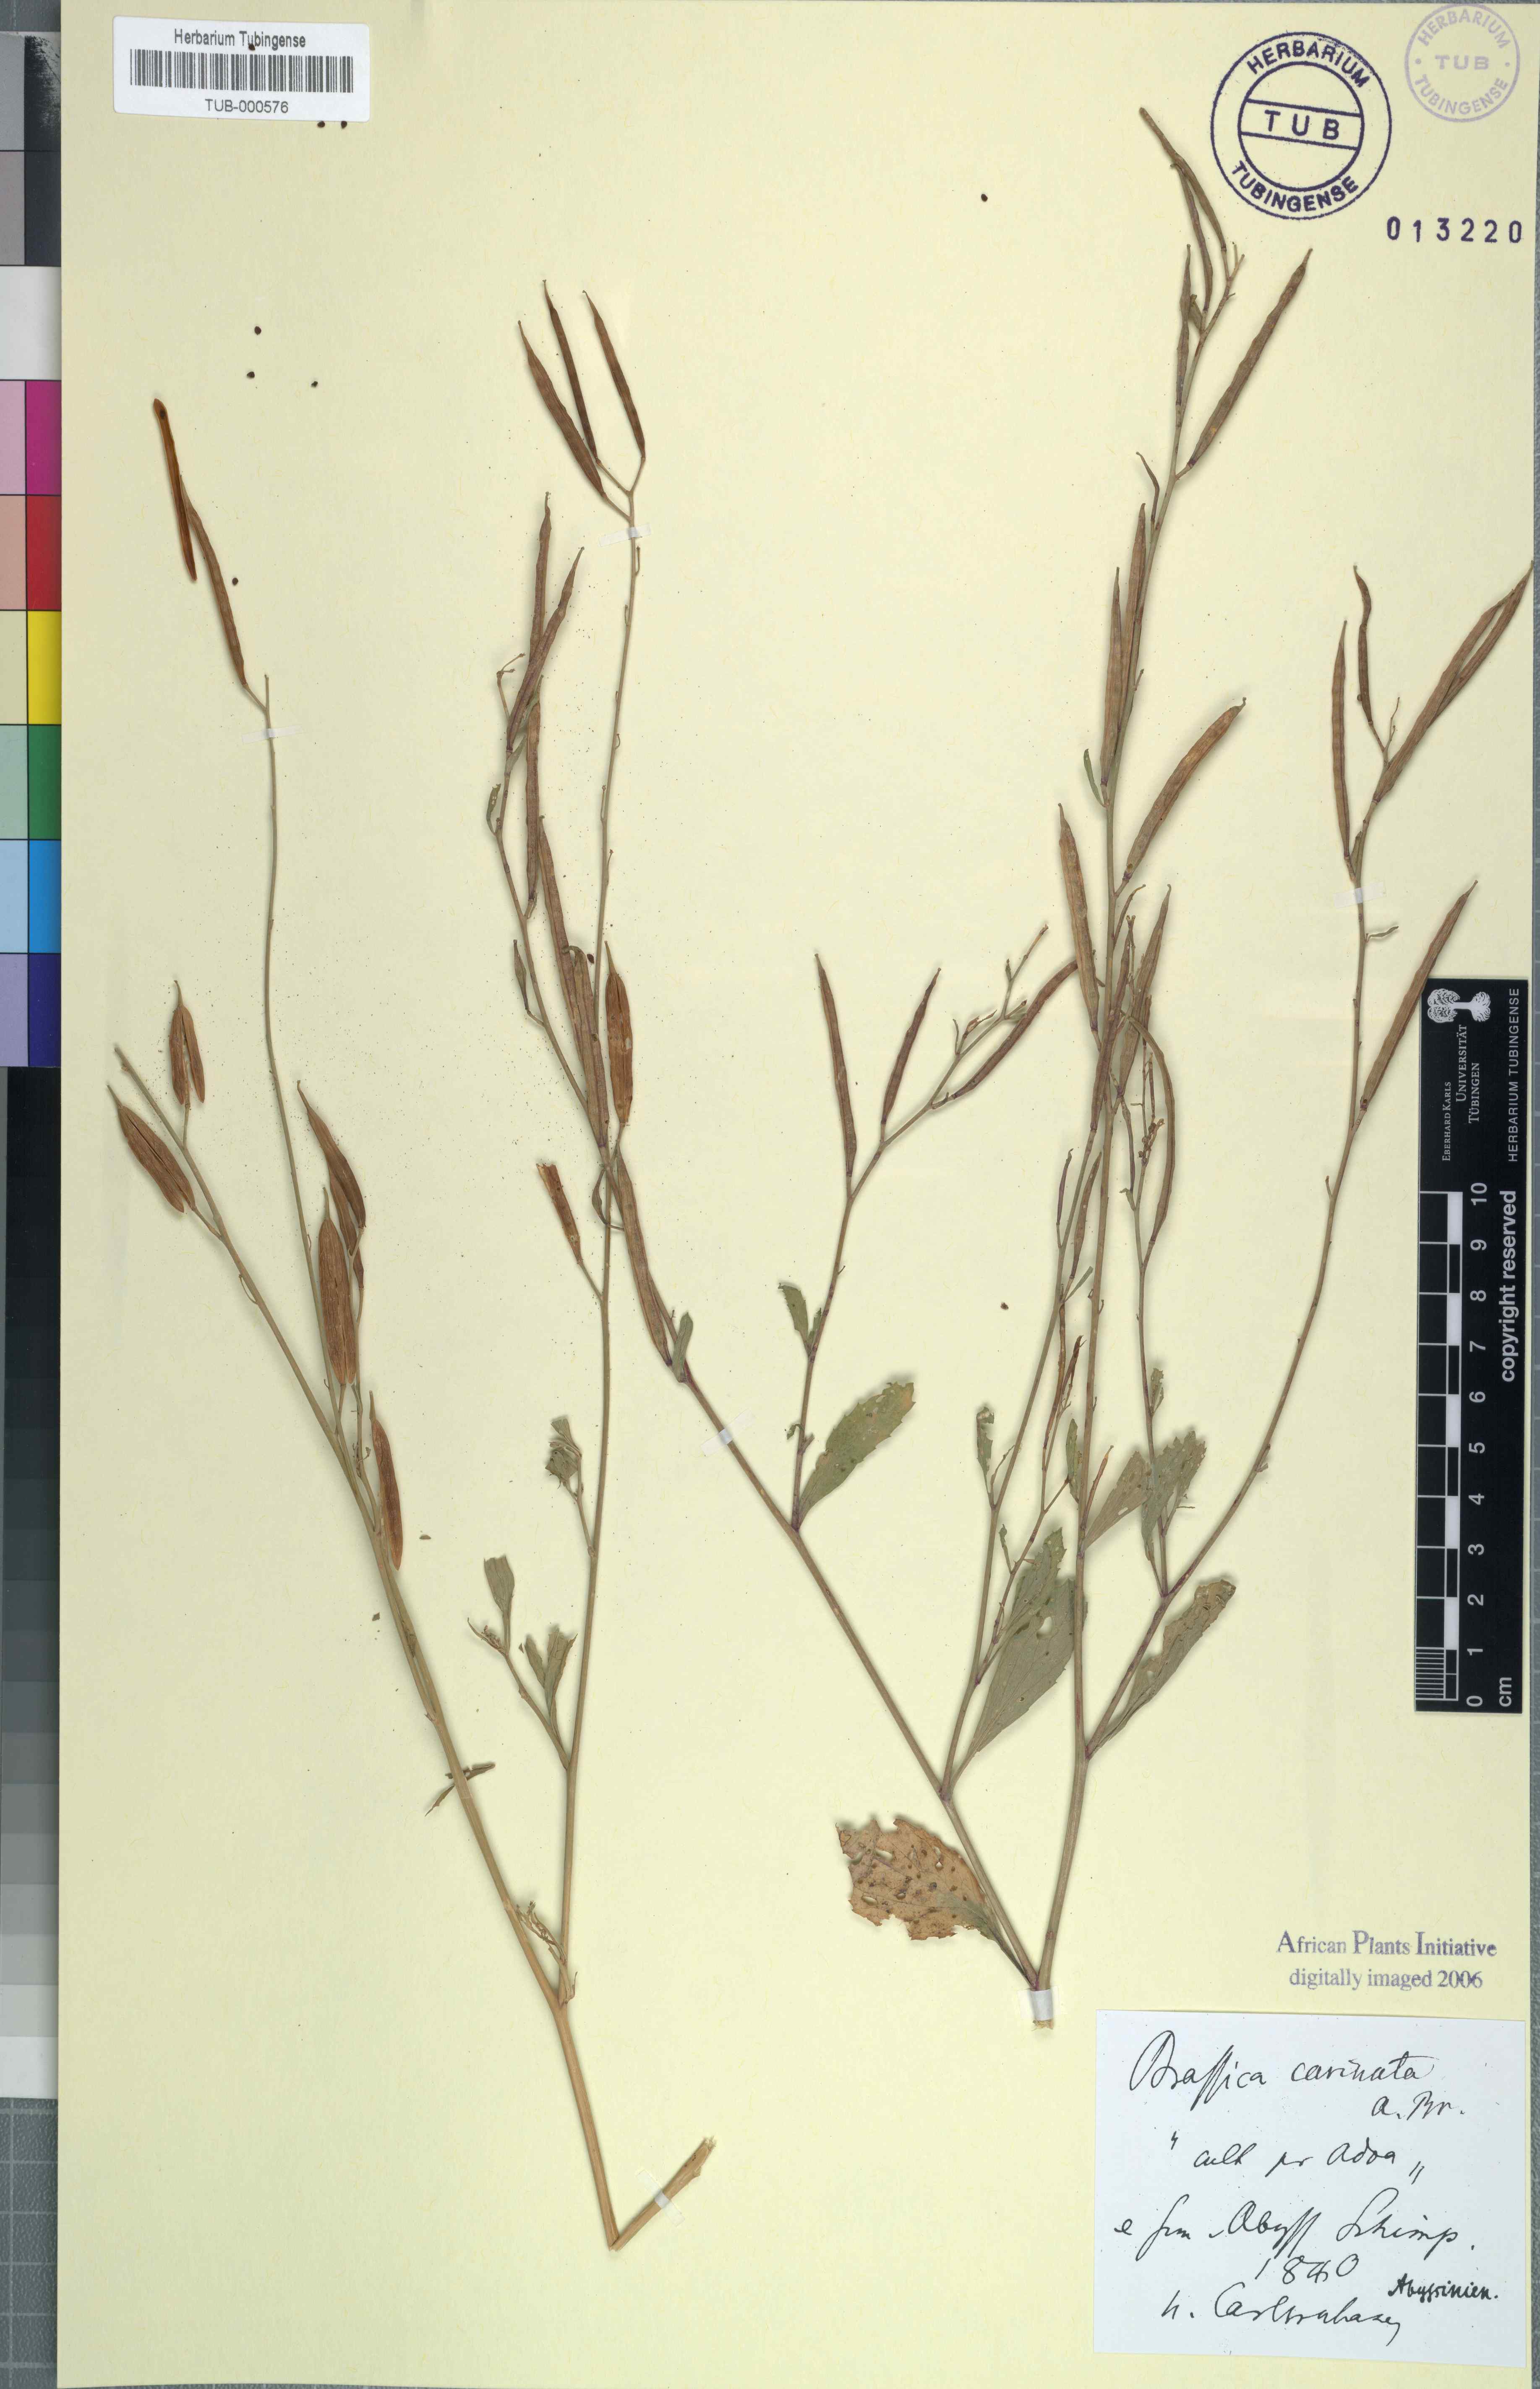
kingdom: Plantae
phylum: Tracheophyta
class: Magnoliopsida
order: Brassicales
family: Brassicaceae
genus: Brassica
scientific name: Brassica carinata
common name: Ethiopian rape
